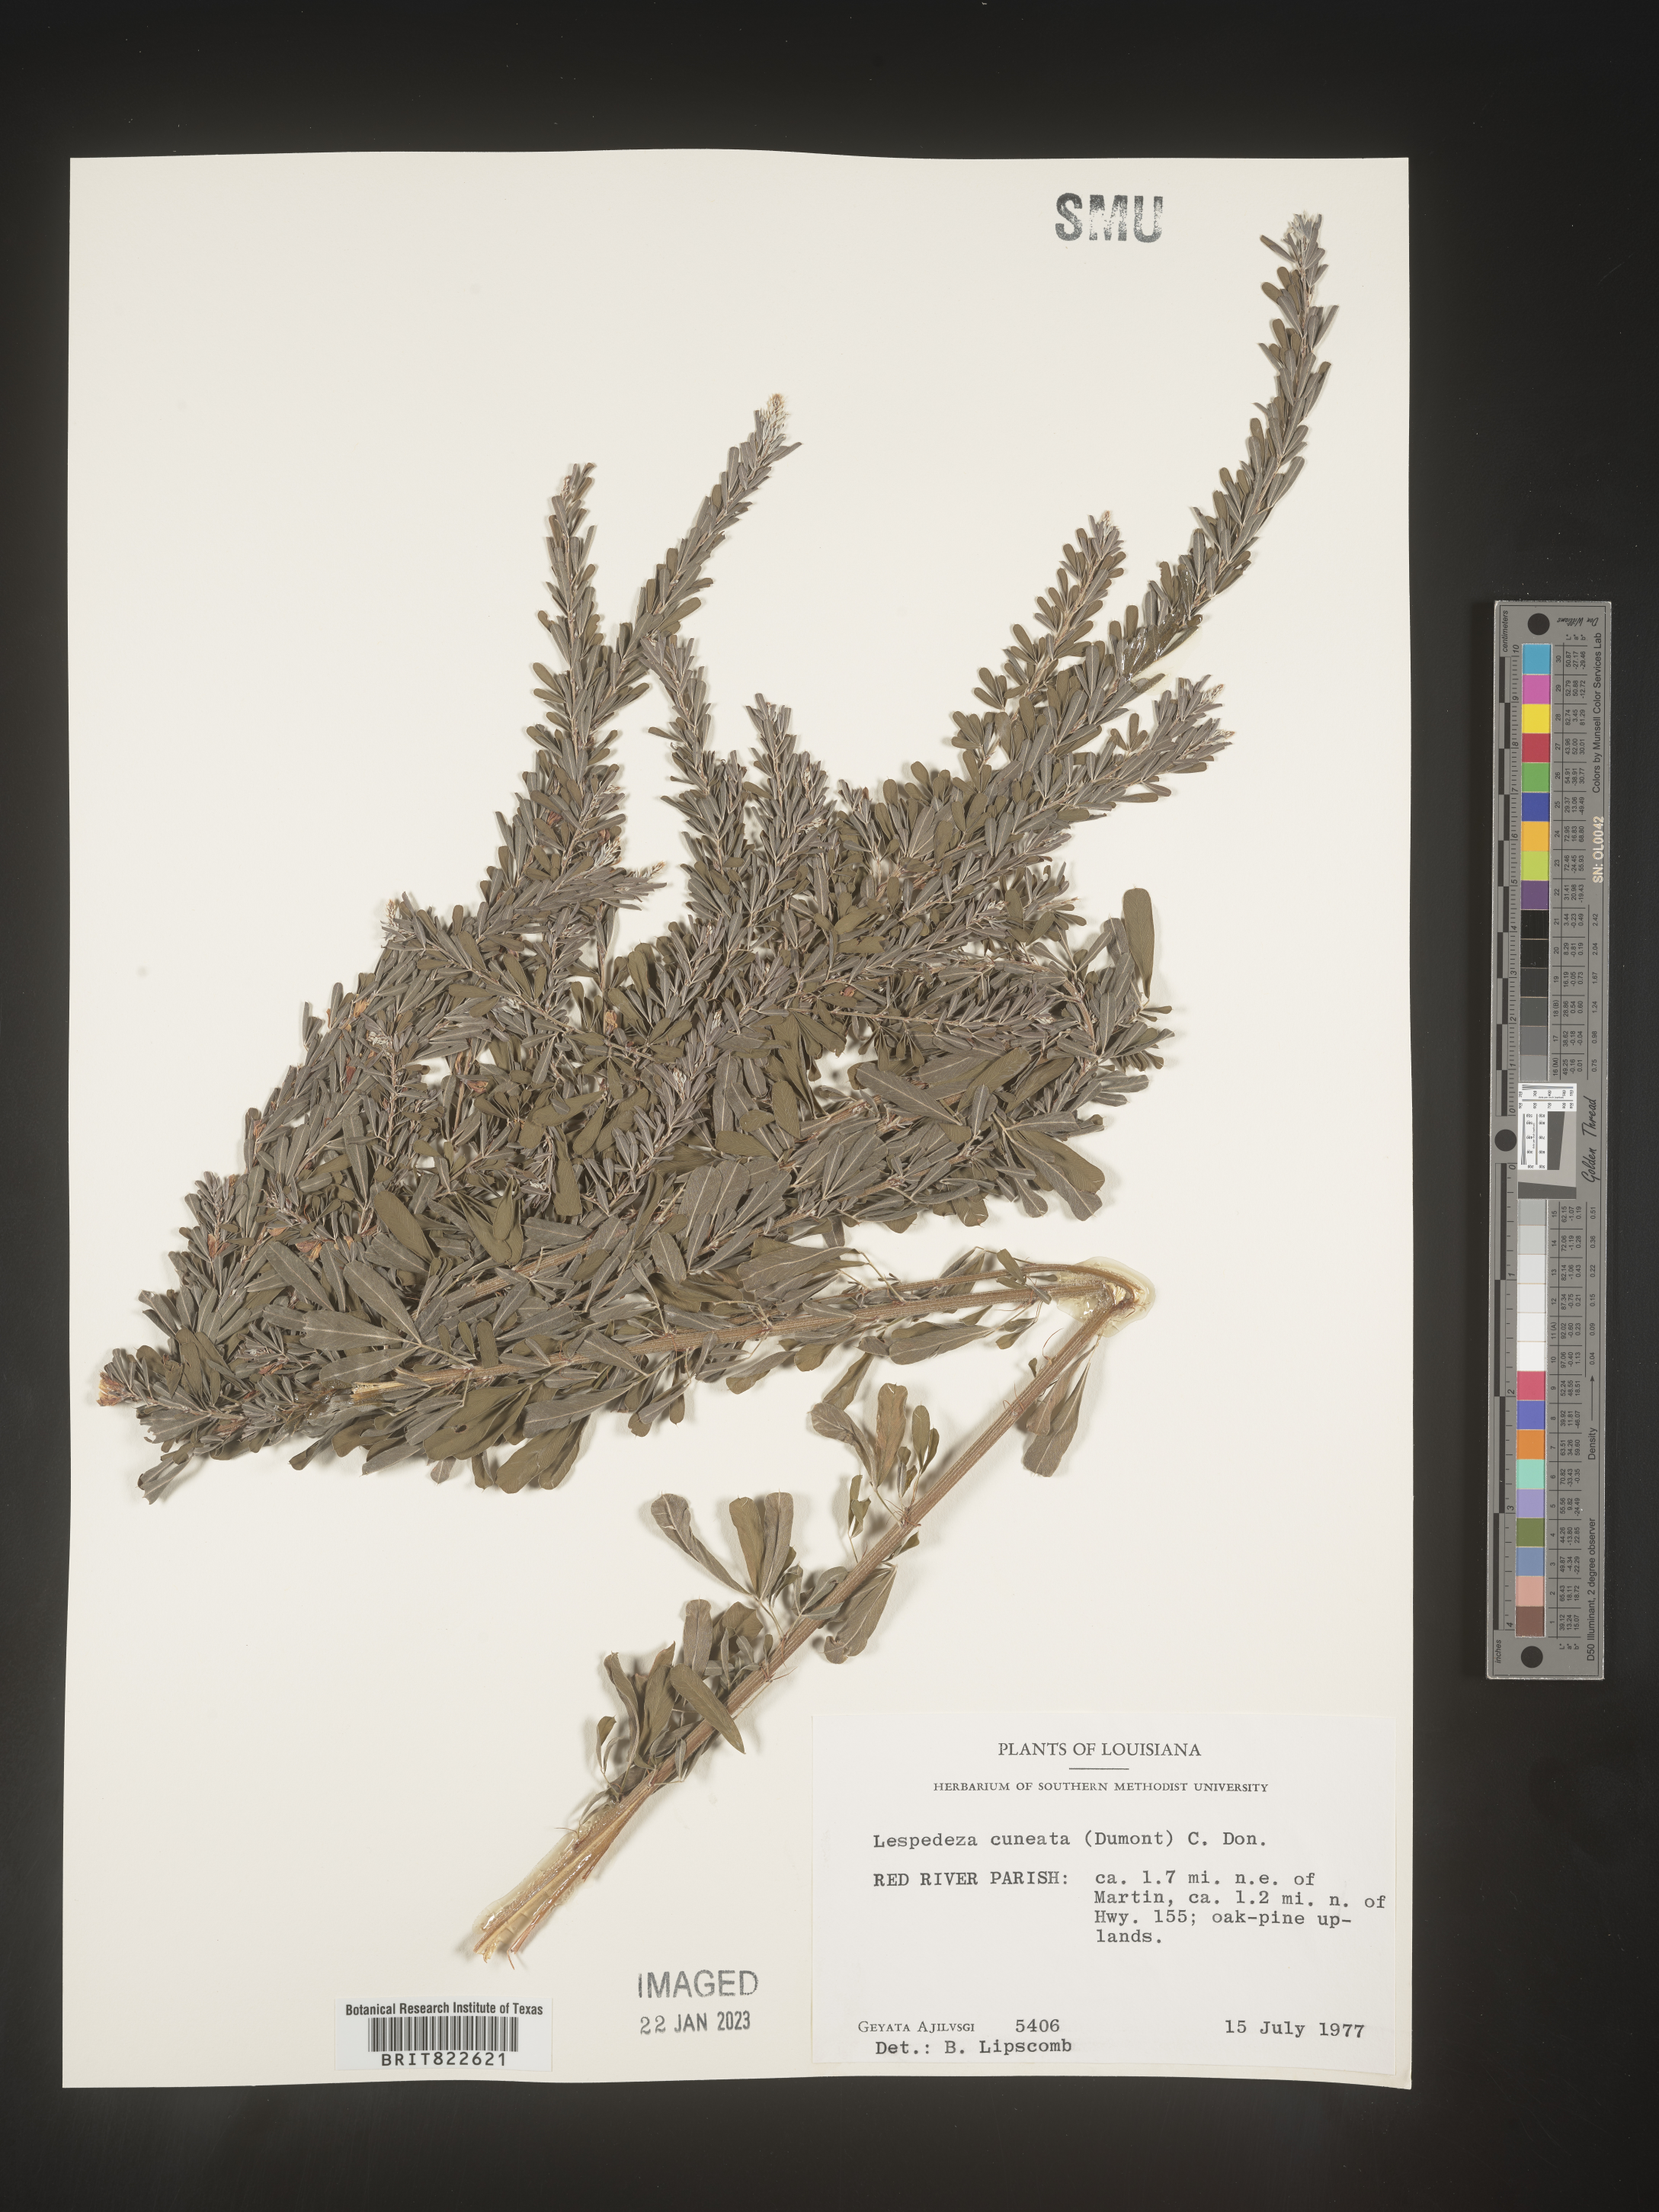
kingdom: Plantae
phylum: Tracheophyta
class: Magnoliopsida
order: Fabales
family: Fabaceae
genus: Lespedeza
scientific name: Lespedeza cuneata
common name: Chinese bush-clover
